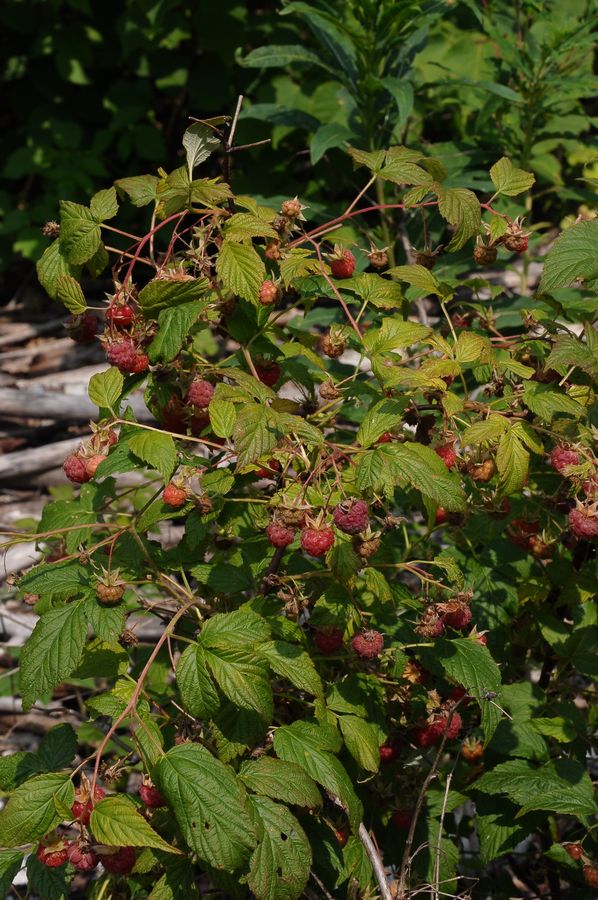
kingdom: Plantae
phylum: Tracheophyta
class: Magnoliopsida
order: Rosales
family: Rosaceae
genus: Rubus
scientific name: Rubus idaeus
